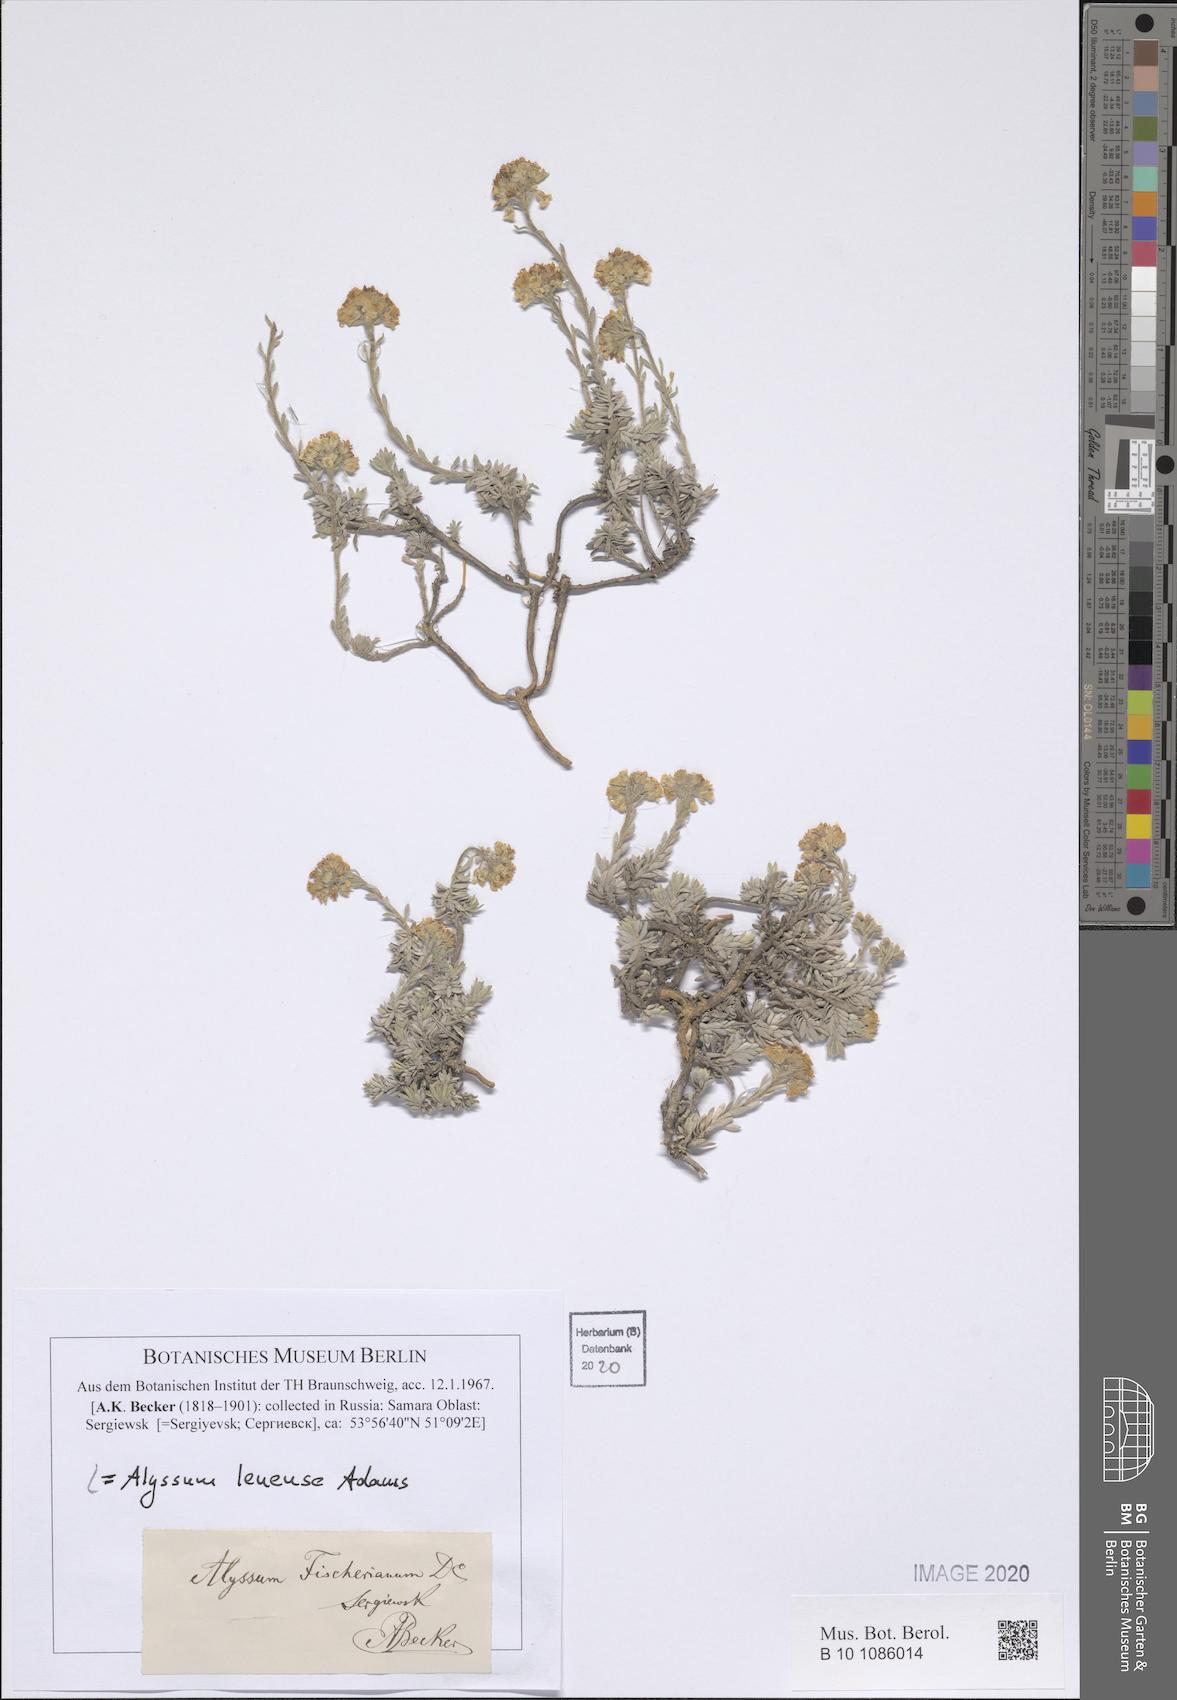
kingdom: Plantae
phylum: Tracheophyta
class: Magnoliopsida
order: Brassicales
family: Brassicaceae
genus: Alyssum
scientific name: Alyssum lenense
